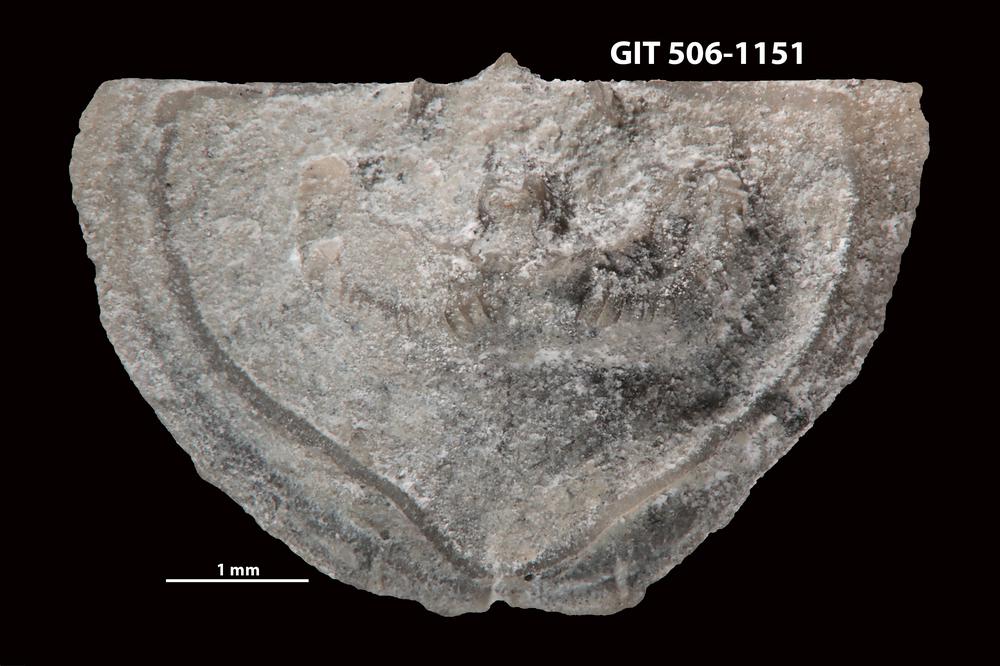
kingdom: Animalia
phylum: Brachiopoda
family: Leptellinidae
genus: Leangella
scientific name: Leangella Plectambonites scissa
